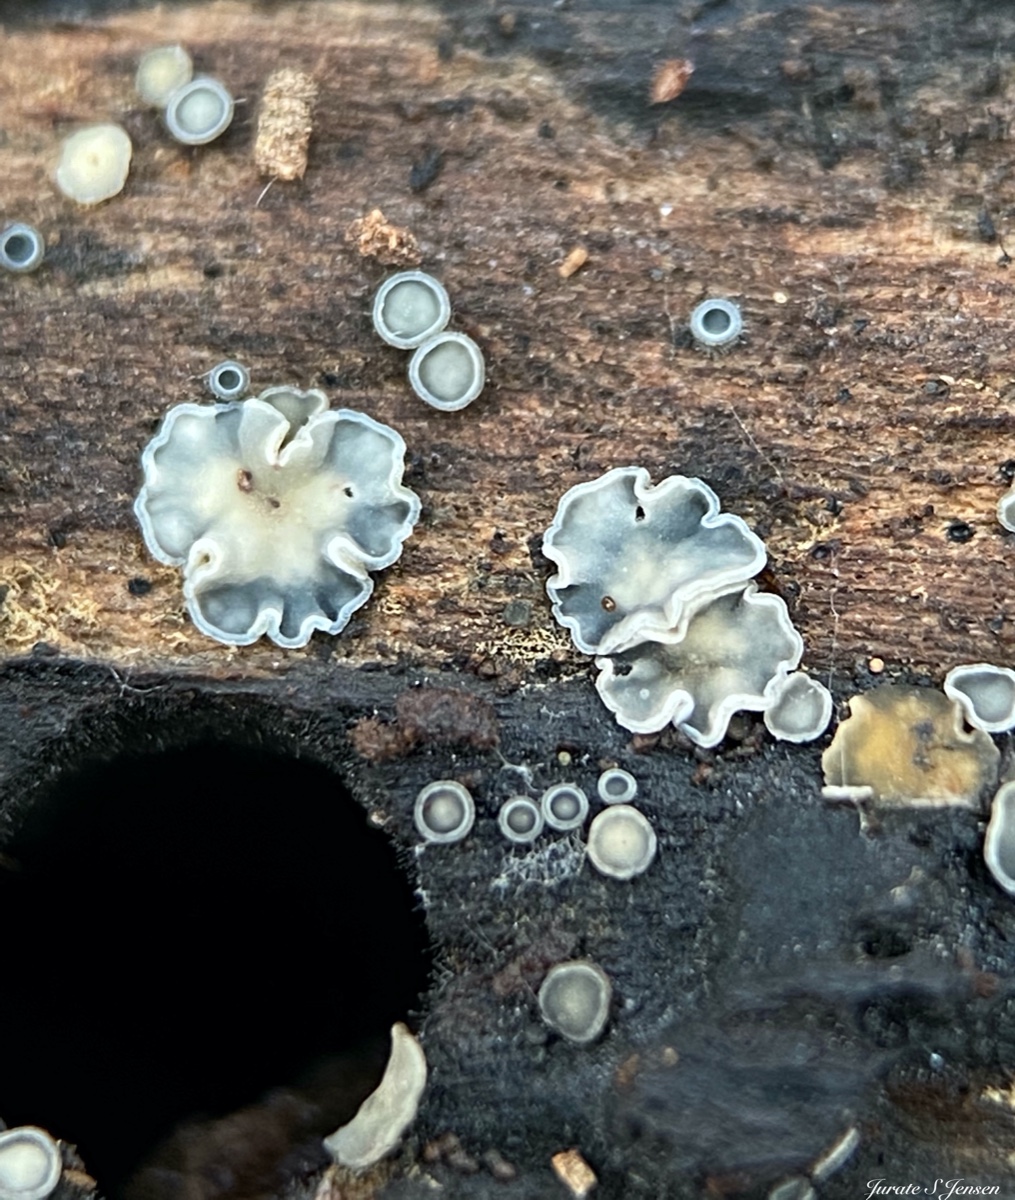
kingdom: Fungi
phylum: Ascomycota
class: Leotiomycetes
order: Helotiales
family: Mollisiaceae
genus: Mollisia
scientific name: Mollisia cinerea
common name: almindelig gråskive
